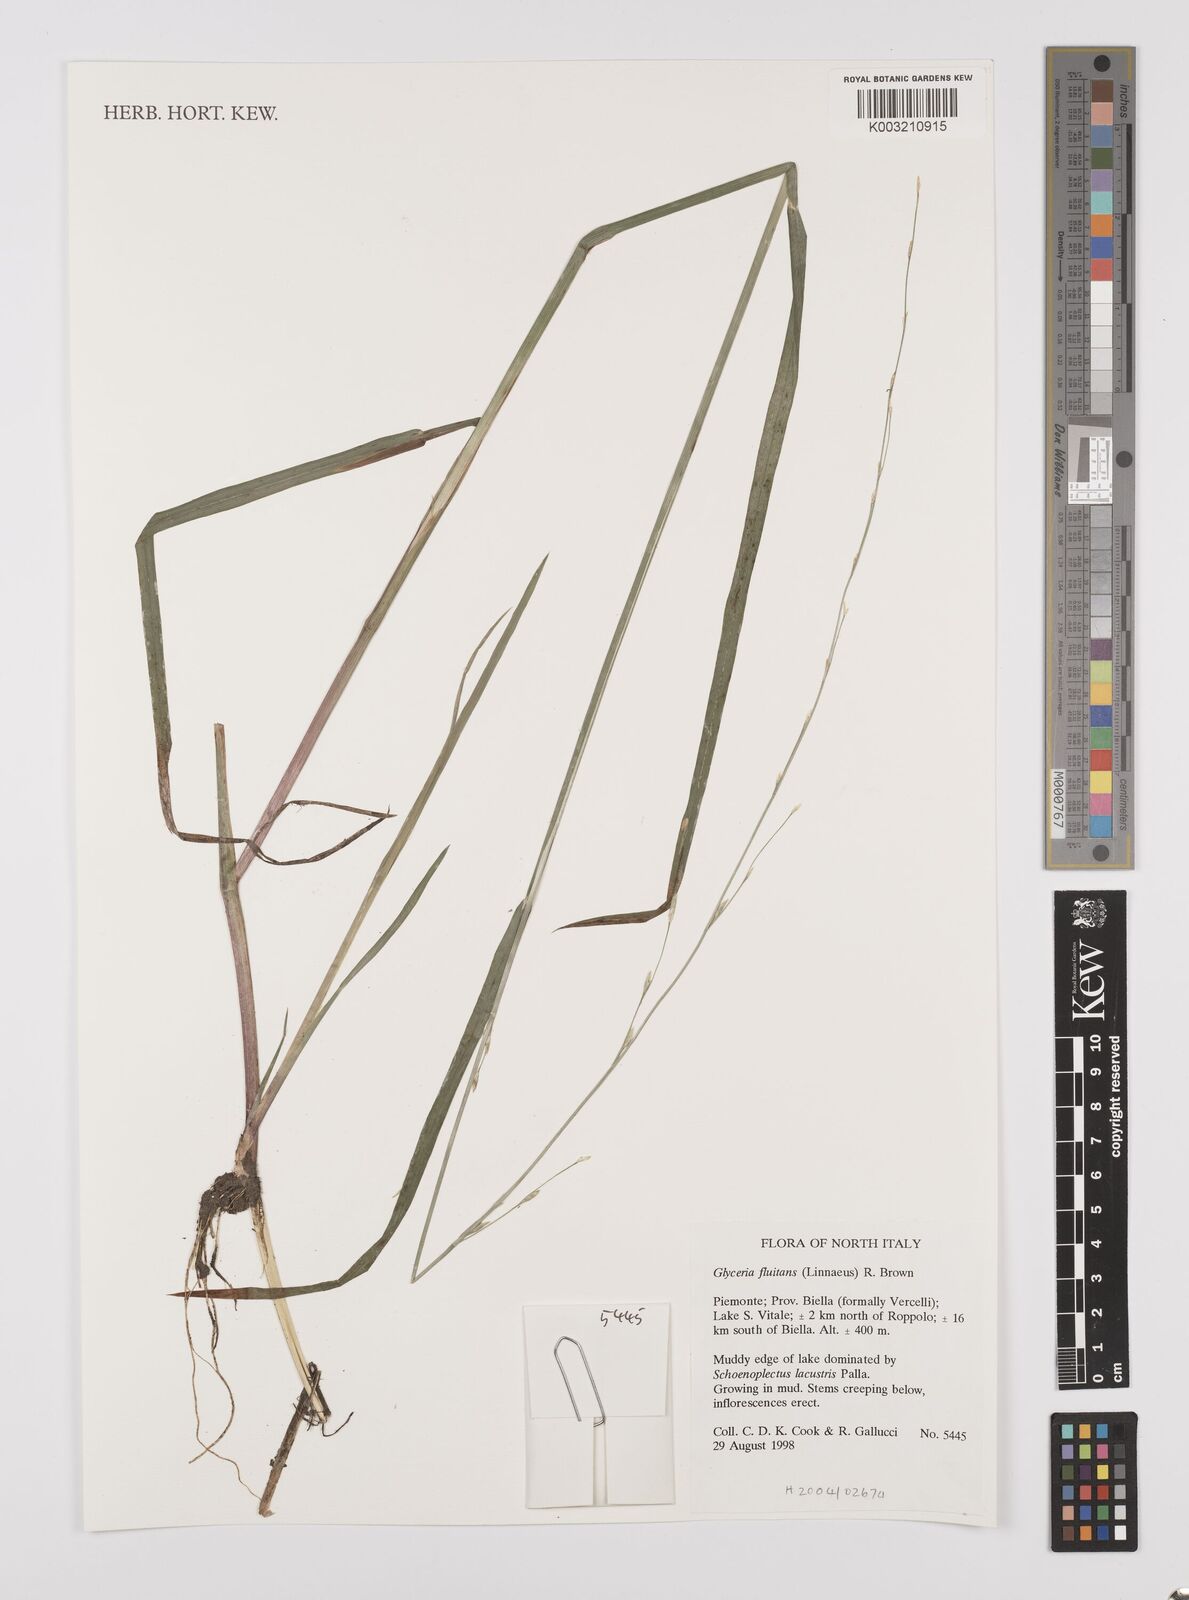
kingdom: Plantae
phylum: Tracheophyta
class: Liliopsida
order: Poales
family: Poaceae
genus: Glyceria
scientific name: Glyceria fluitans
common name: Floating sweet-grass
